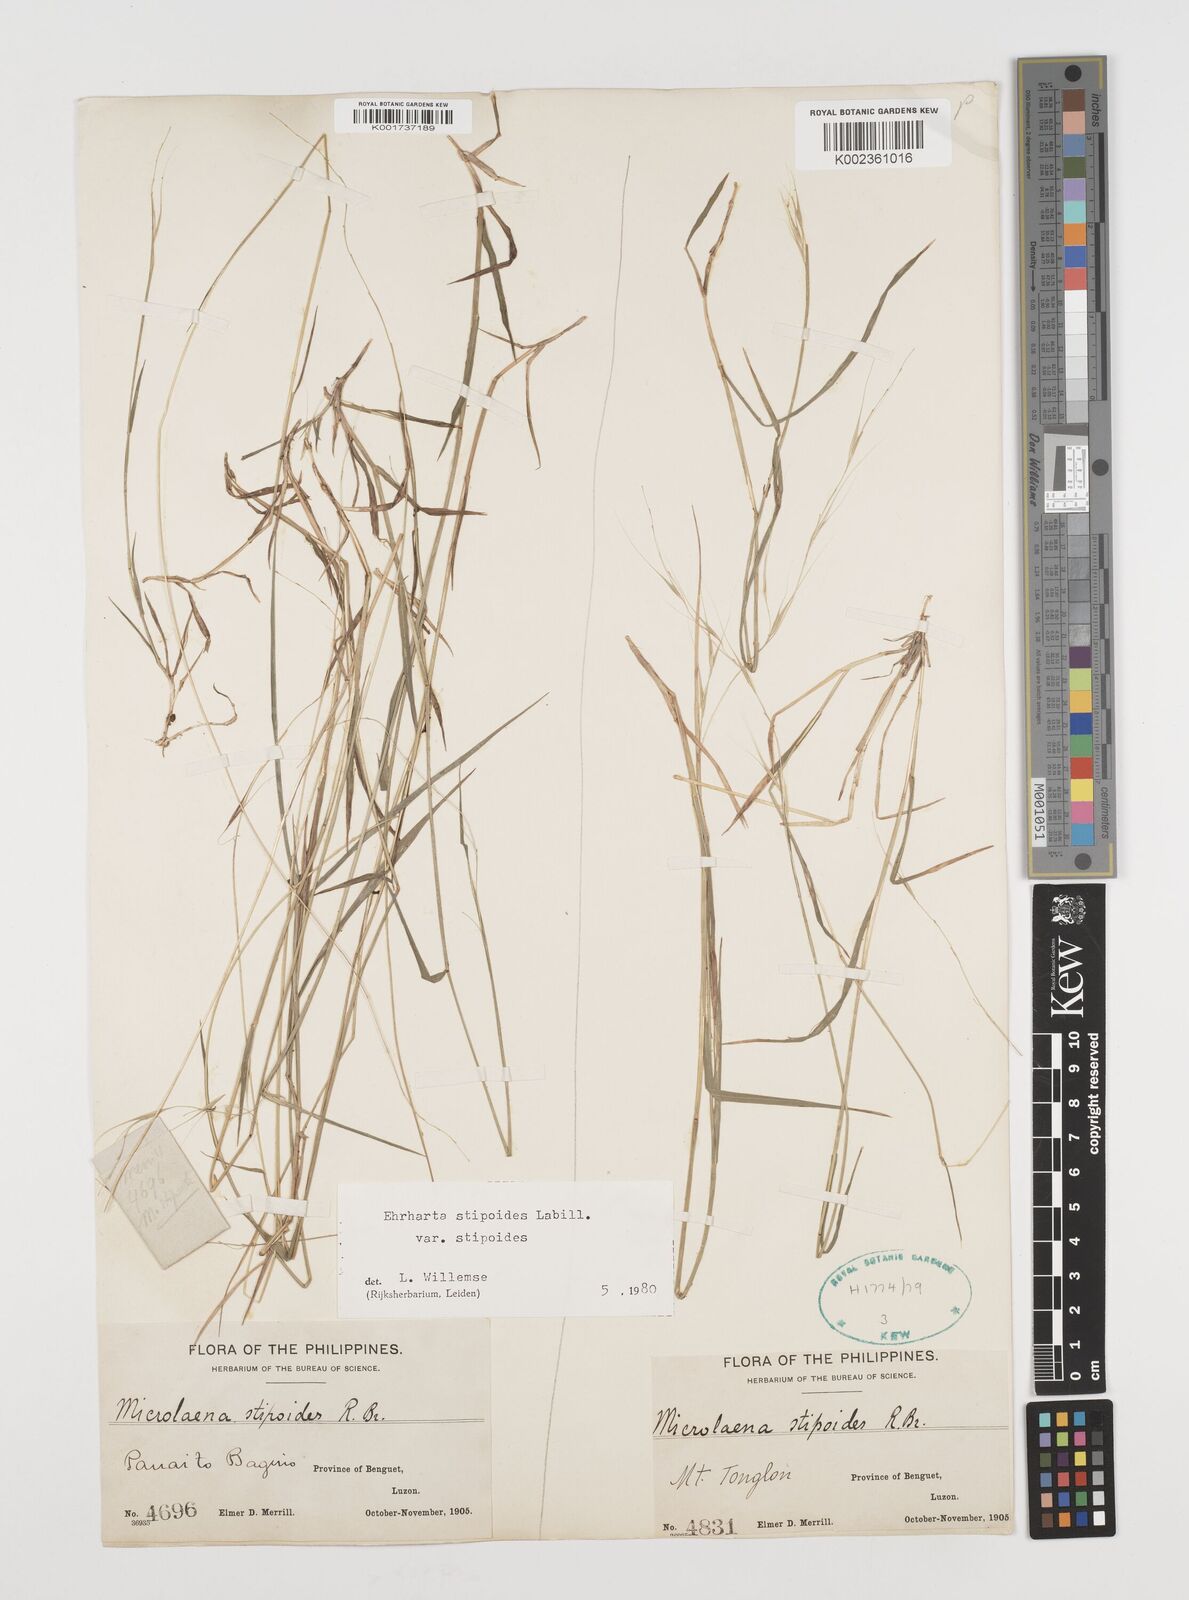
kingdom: Plantae
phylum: Tracheophyta
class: Liliopsida
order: Poales
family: Poaceae
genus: Microlaena
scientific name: Microlaena stipoides
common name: Meadow ricegrass
